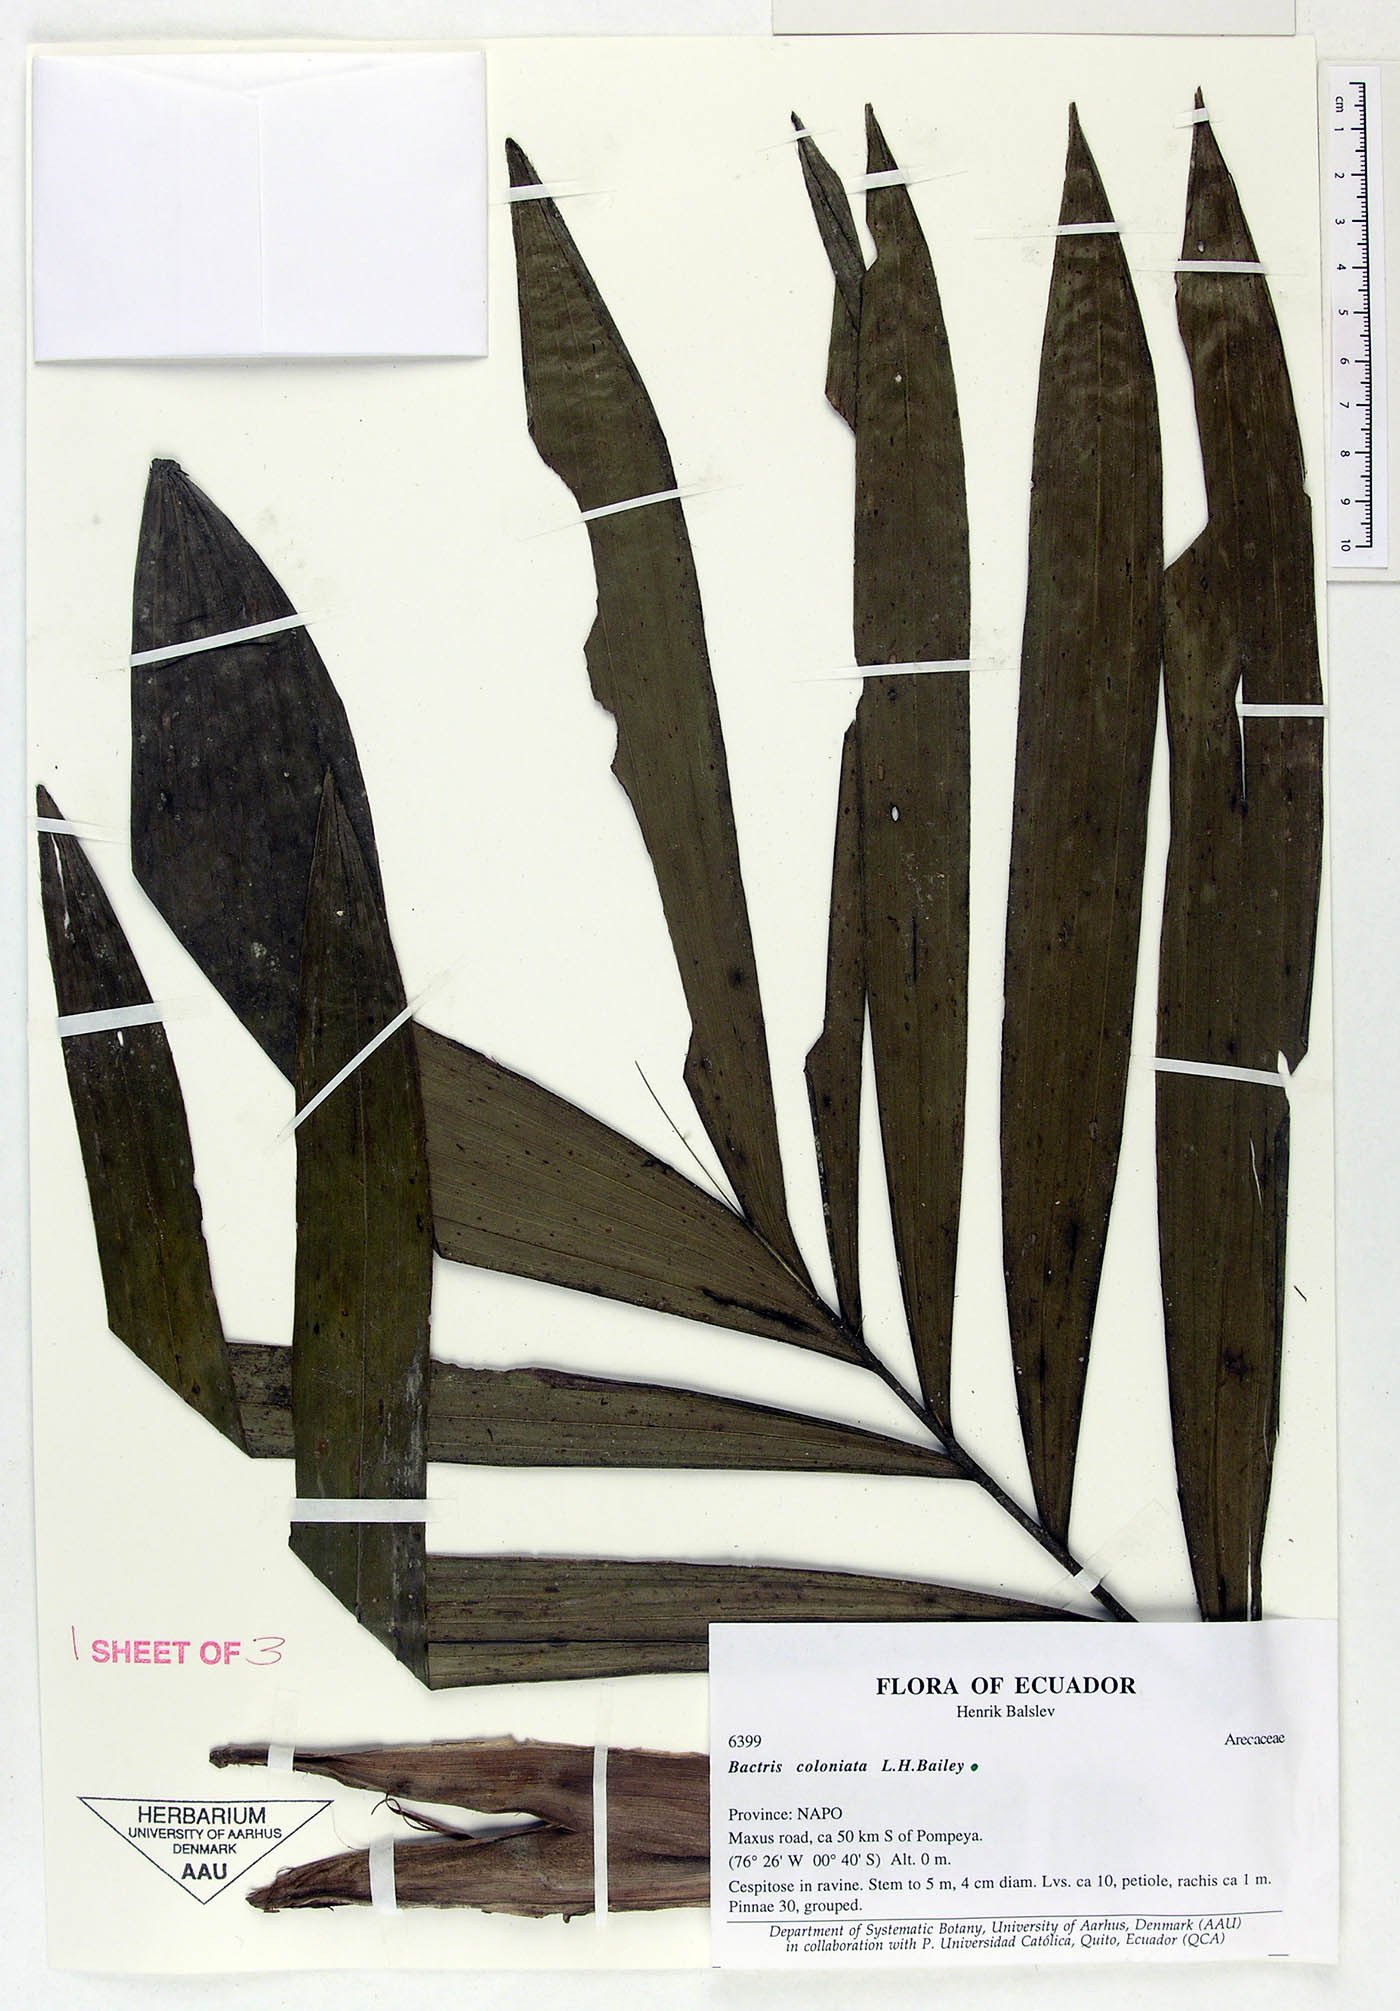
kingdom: Plantae
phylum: Tracheophyta
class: Liliopsida
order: Arecales
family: Arecaceae
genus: Bactris
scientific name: Bactris coloniata
